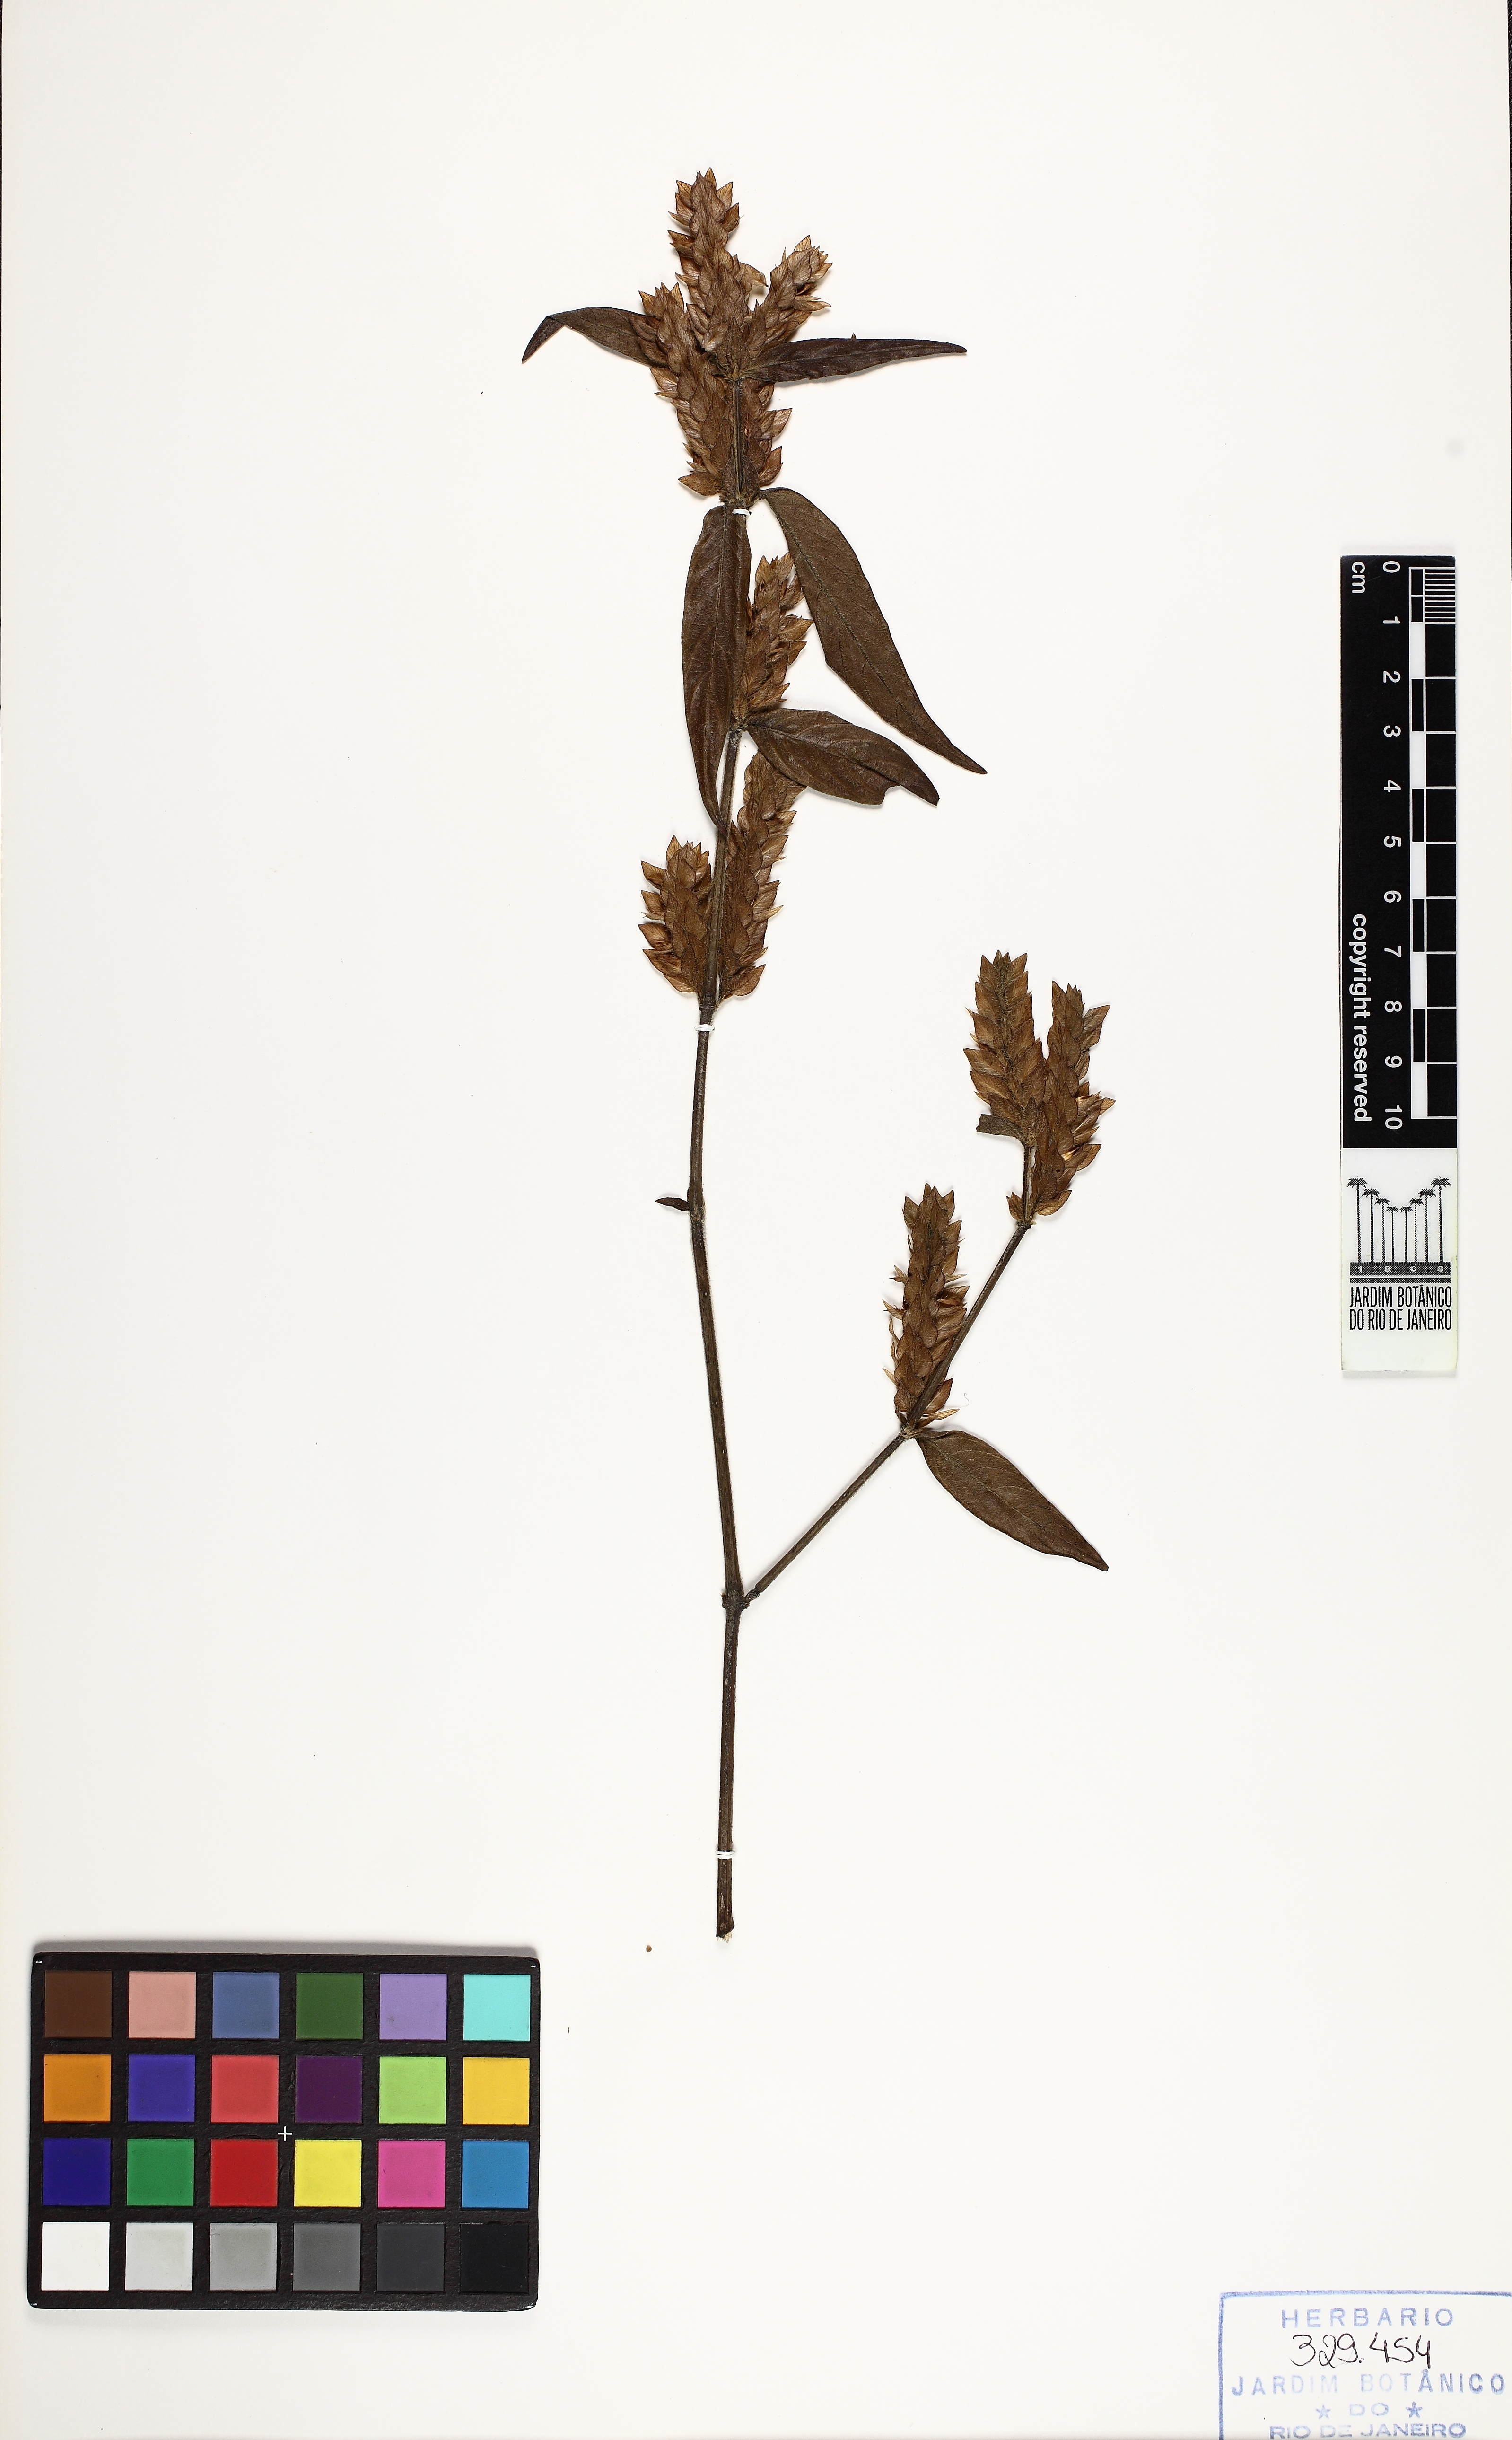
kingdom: Plantae
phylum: Tracheophyta
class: Magnoliopsida
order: Lamiales
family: Acanthaceae
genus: Justicia
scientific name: Justicia polystachya
